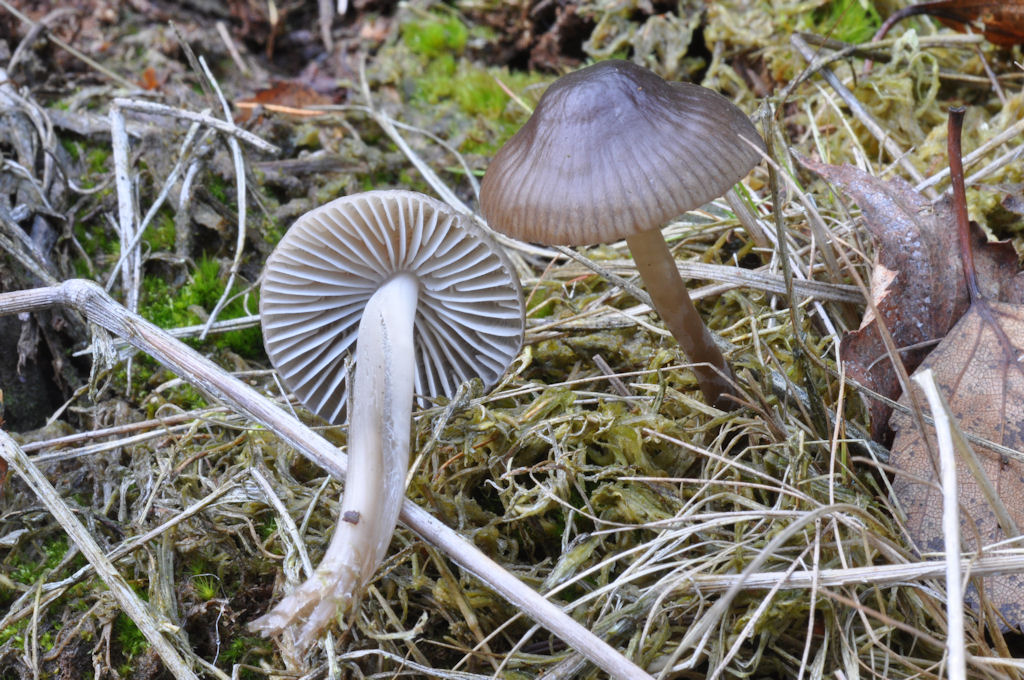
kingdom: Fungi
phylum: Basidiomycota
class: Agaricomycetes
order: Agaricales
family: Mycenaceae
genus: Mycena
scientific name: Mycena megaspora
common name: brusk-huesvamp
